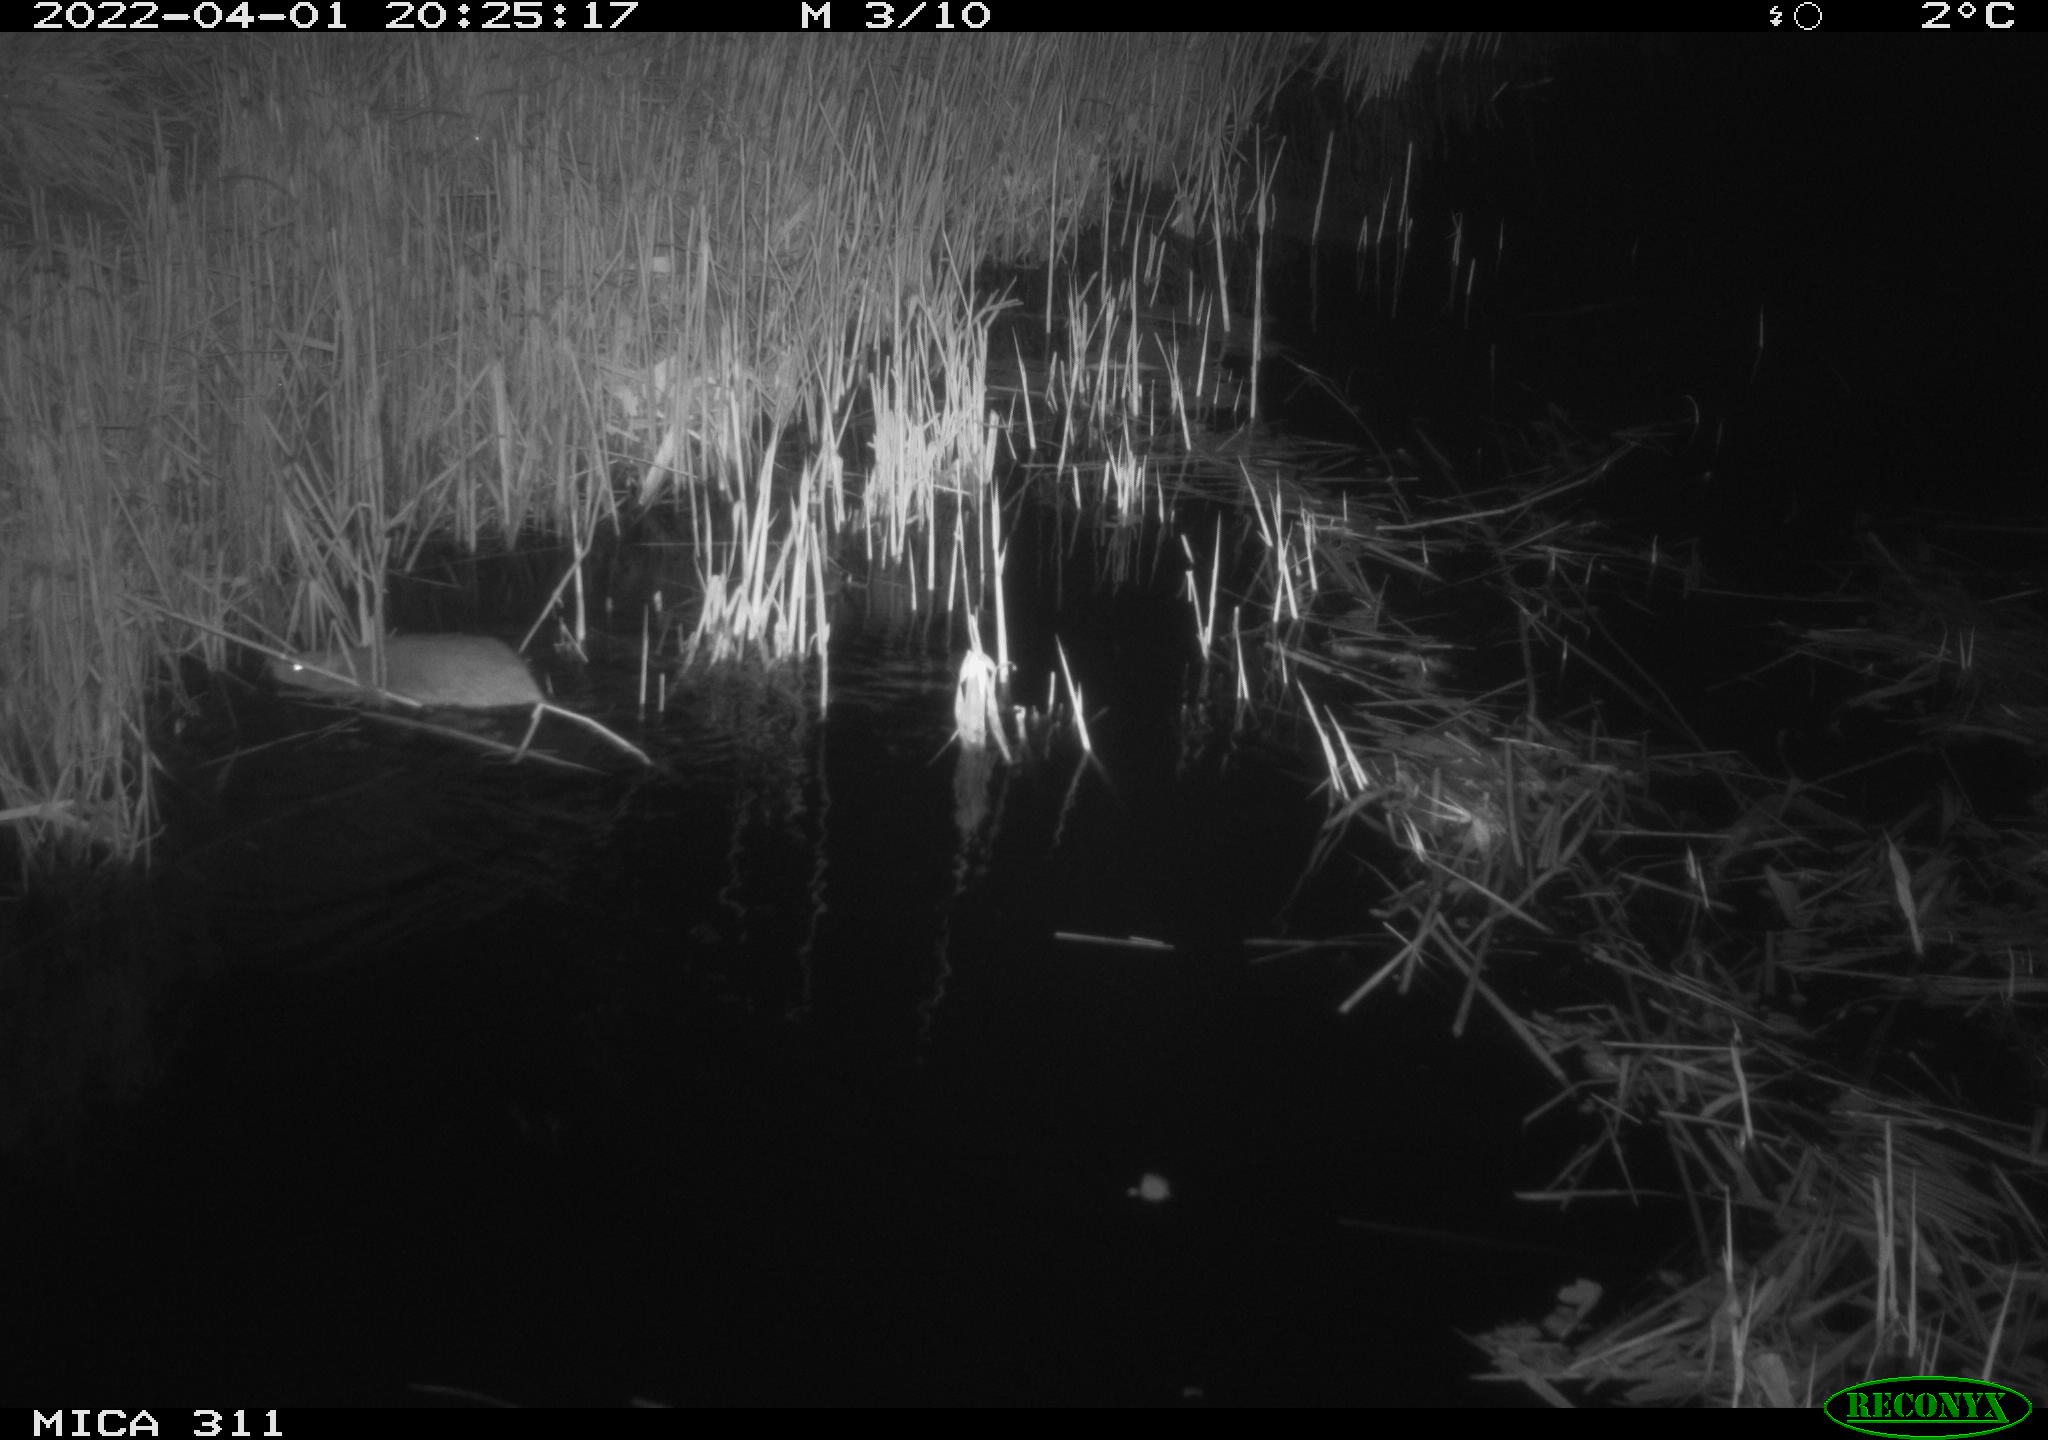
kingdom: Animalia
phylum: Chordata
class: Mammalia
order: Rodentia
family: Muridae
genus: Rattus
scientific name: Rattus norvegicus
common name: Brown rat
